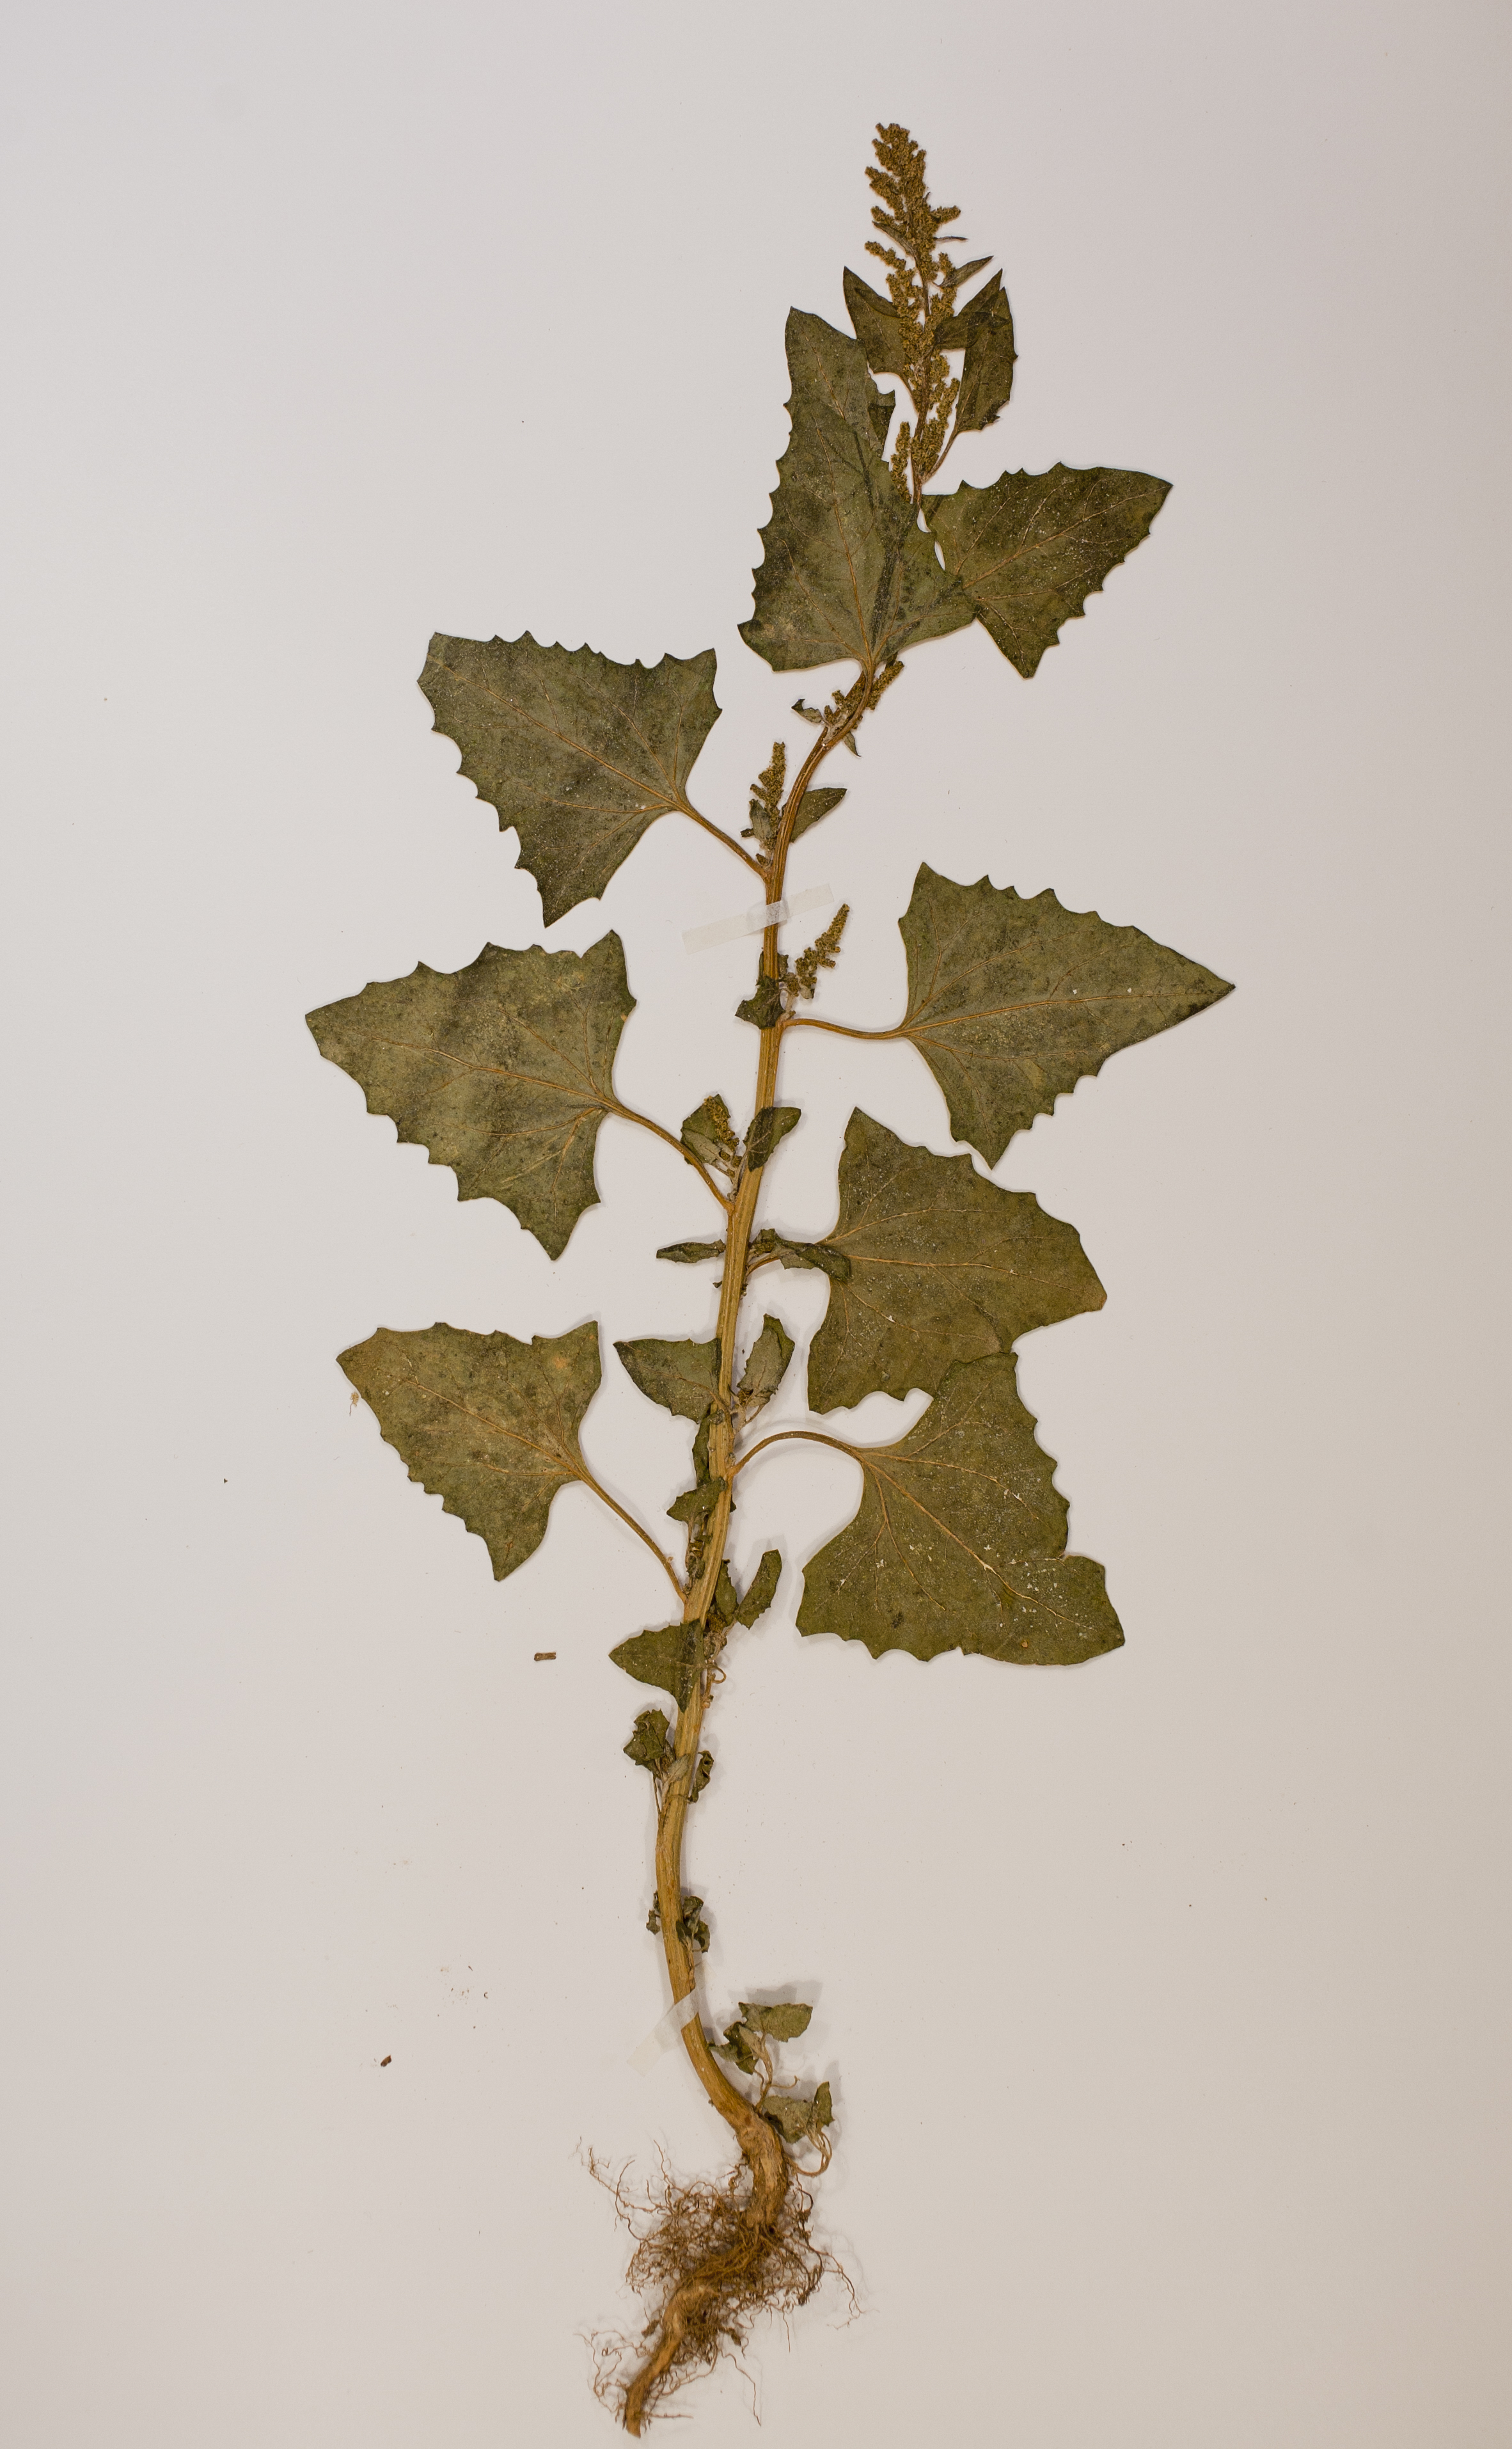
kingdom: Plantae
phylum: Tracheophyta
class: Magnoliopsida
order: Caryophyllales
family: Amaranthaceae
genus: Oxybasis
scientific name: Oxybasis urbica
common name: City goosefoot
